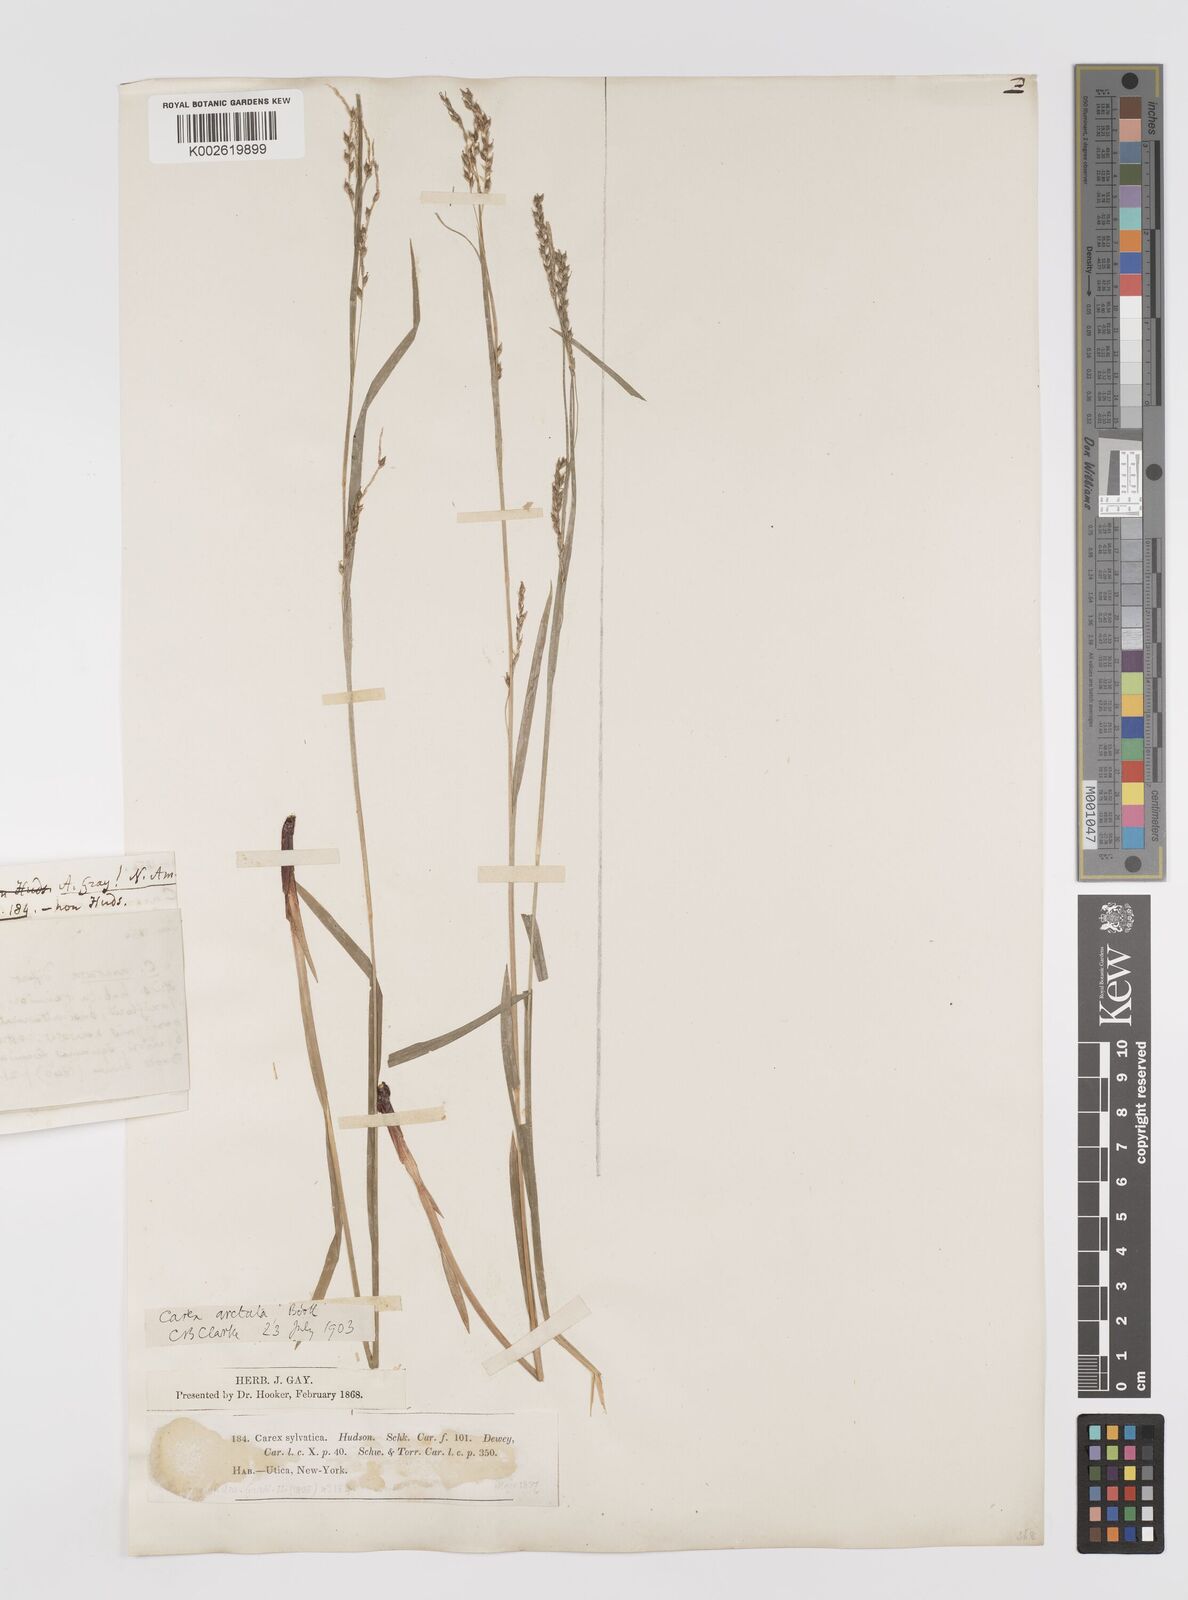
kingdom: Plantae
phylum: Tracheophyta
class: Liliopsida
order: Poales
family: Cyperaceae
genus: Carex
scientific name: Carex arctata
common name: Black sedge
